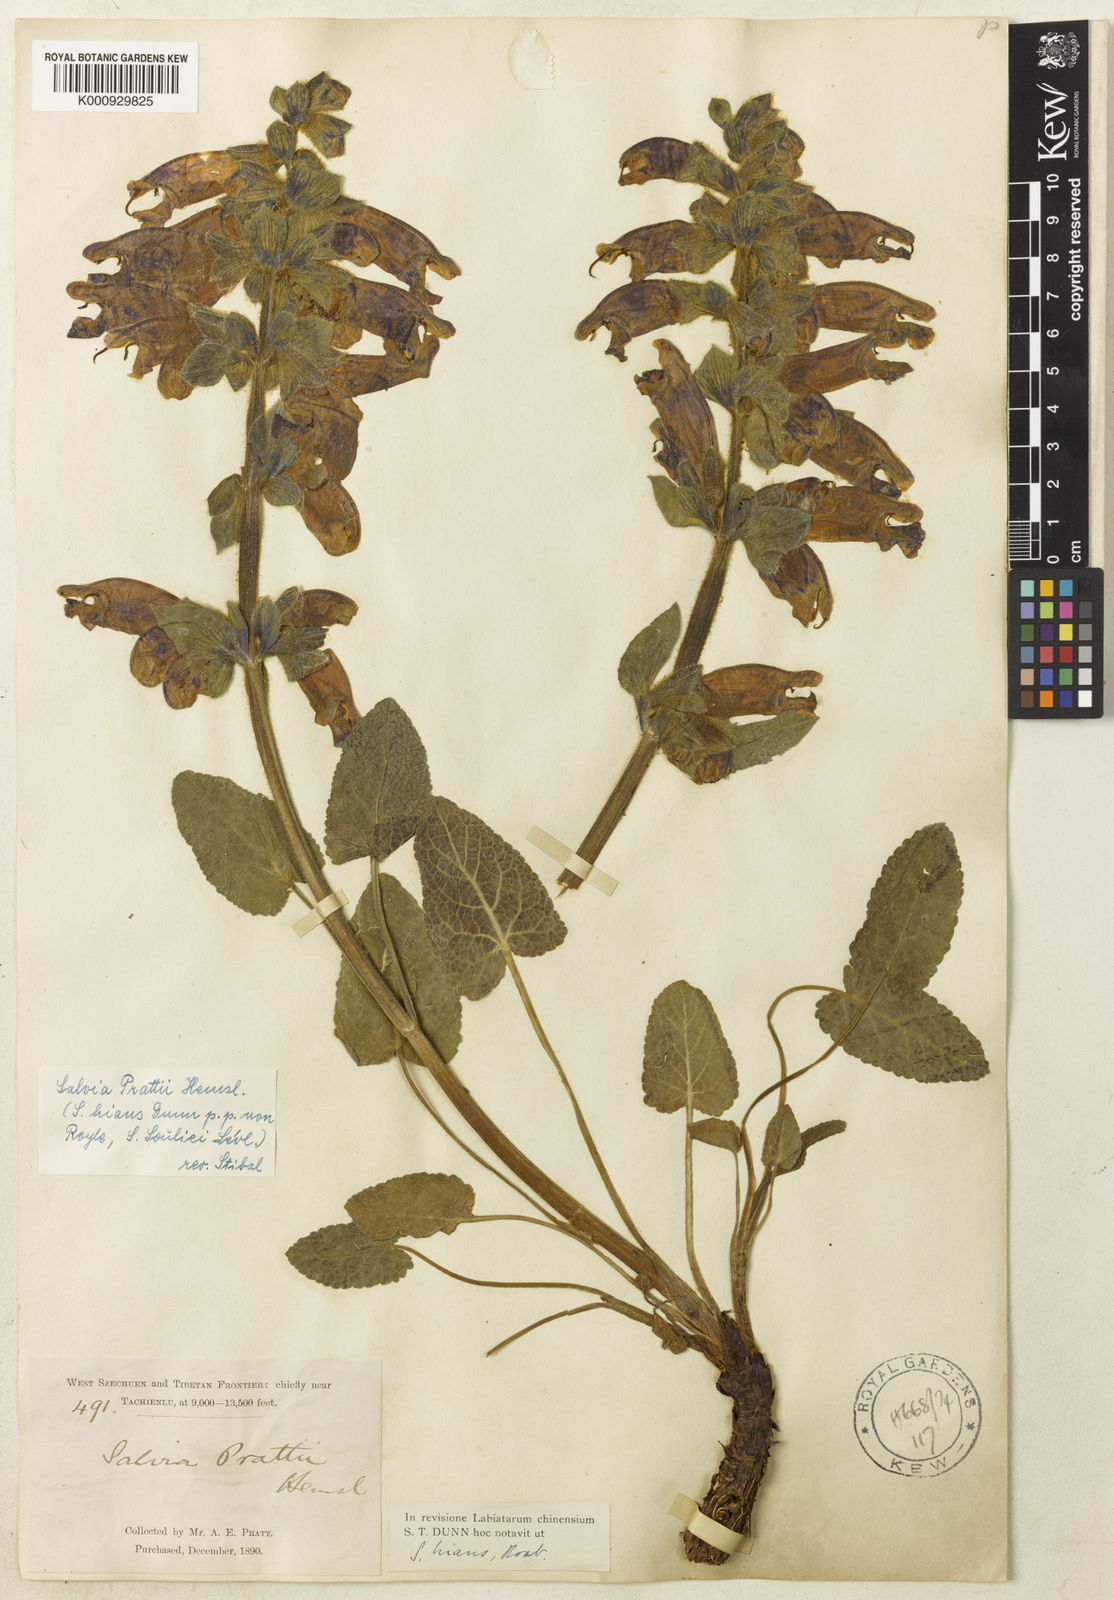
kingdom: Plantae
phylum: Tracheophyta
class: Magnoliopsida
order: Lamiales
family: Lamiaceae
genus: Salvia
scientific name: Salvia prattii
